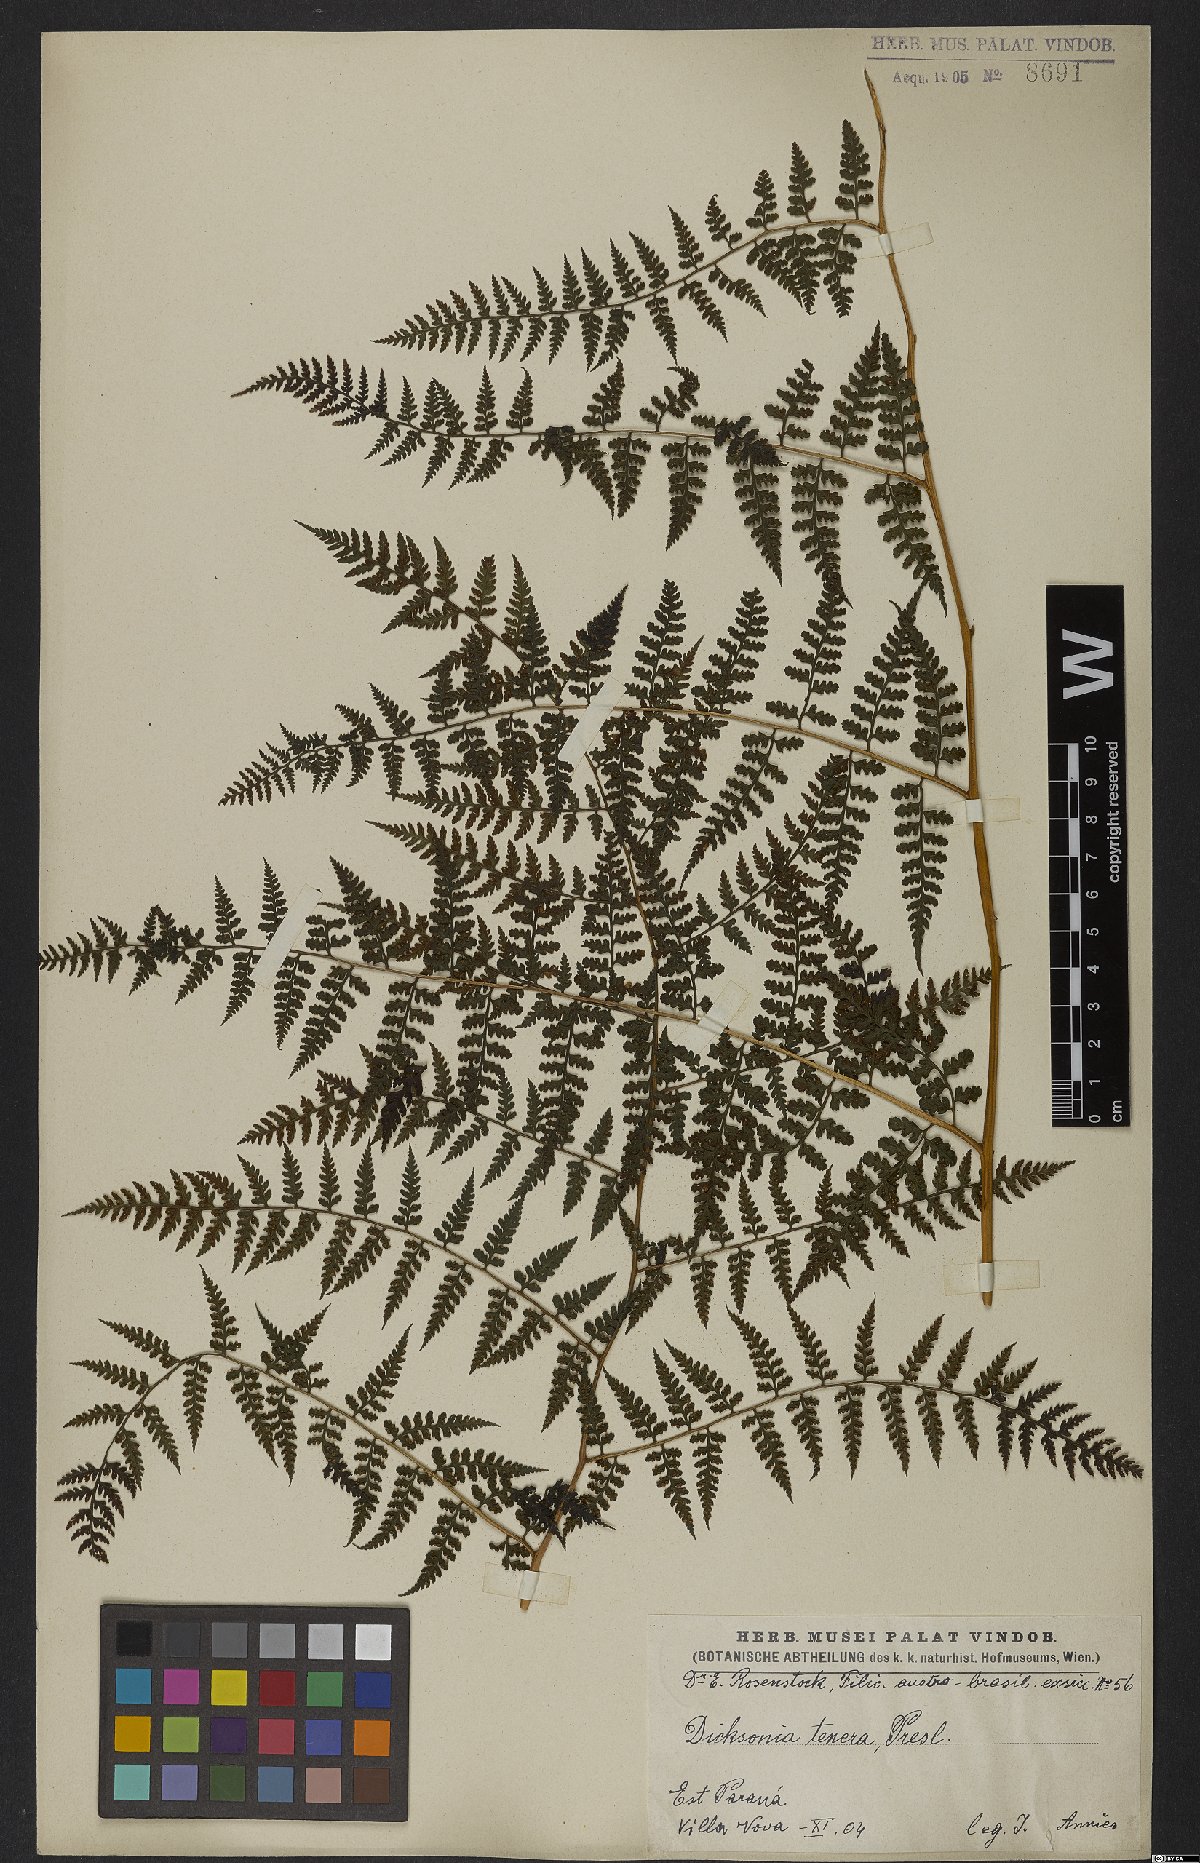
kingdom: Plantae
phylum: Tracheophyta
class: Polypodiopsida
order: Polypodiales
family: Dennstaedtiaceae
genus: Mucura
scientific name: Mucura globulifera
